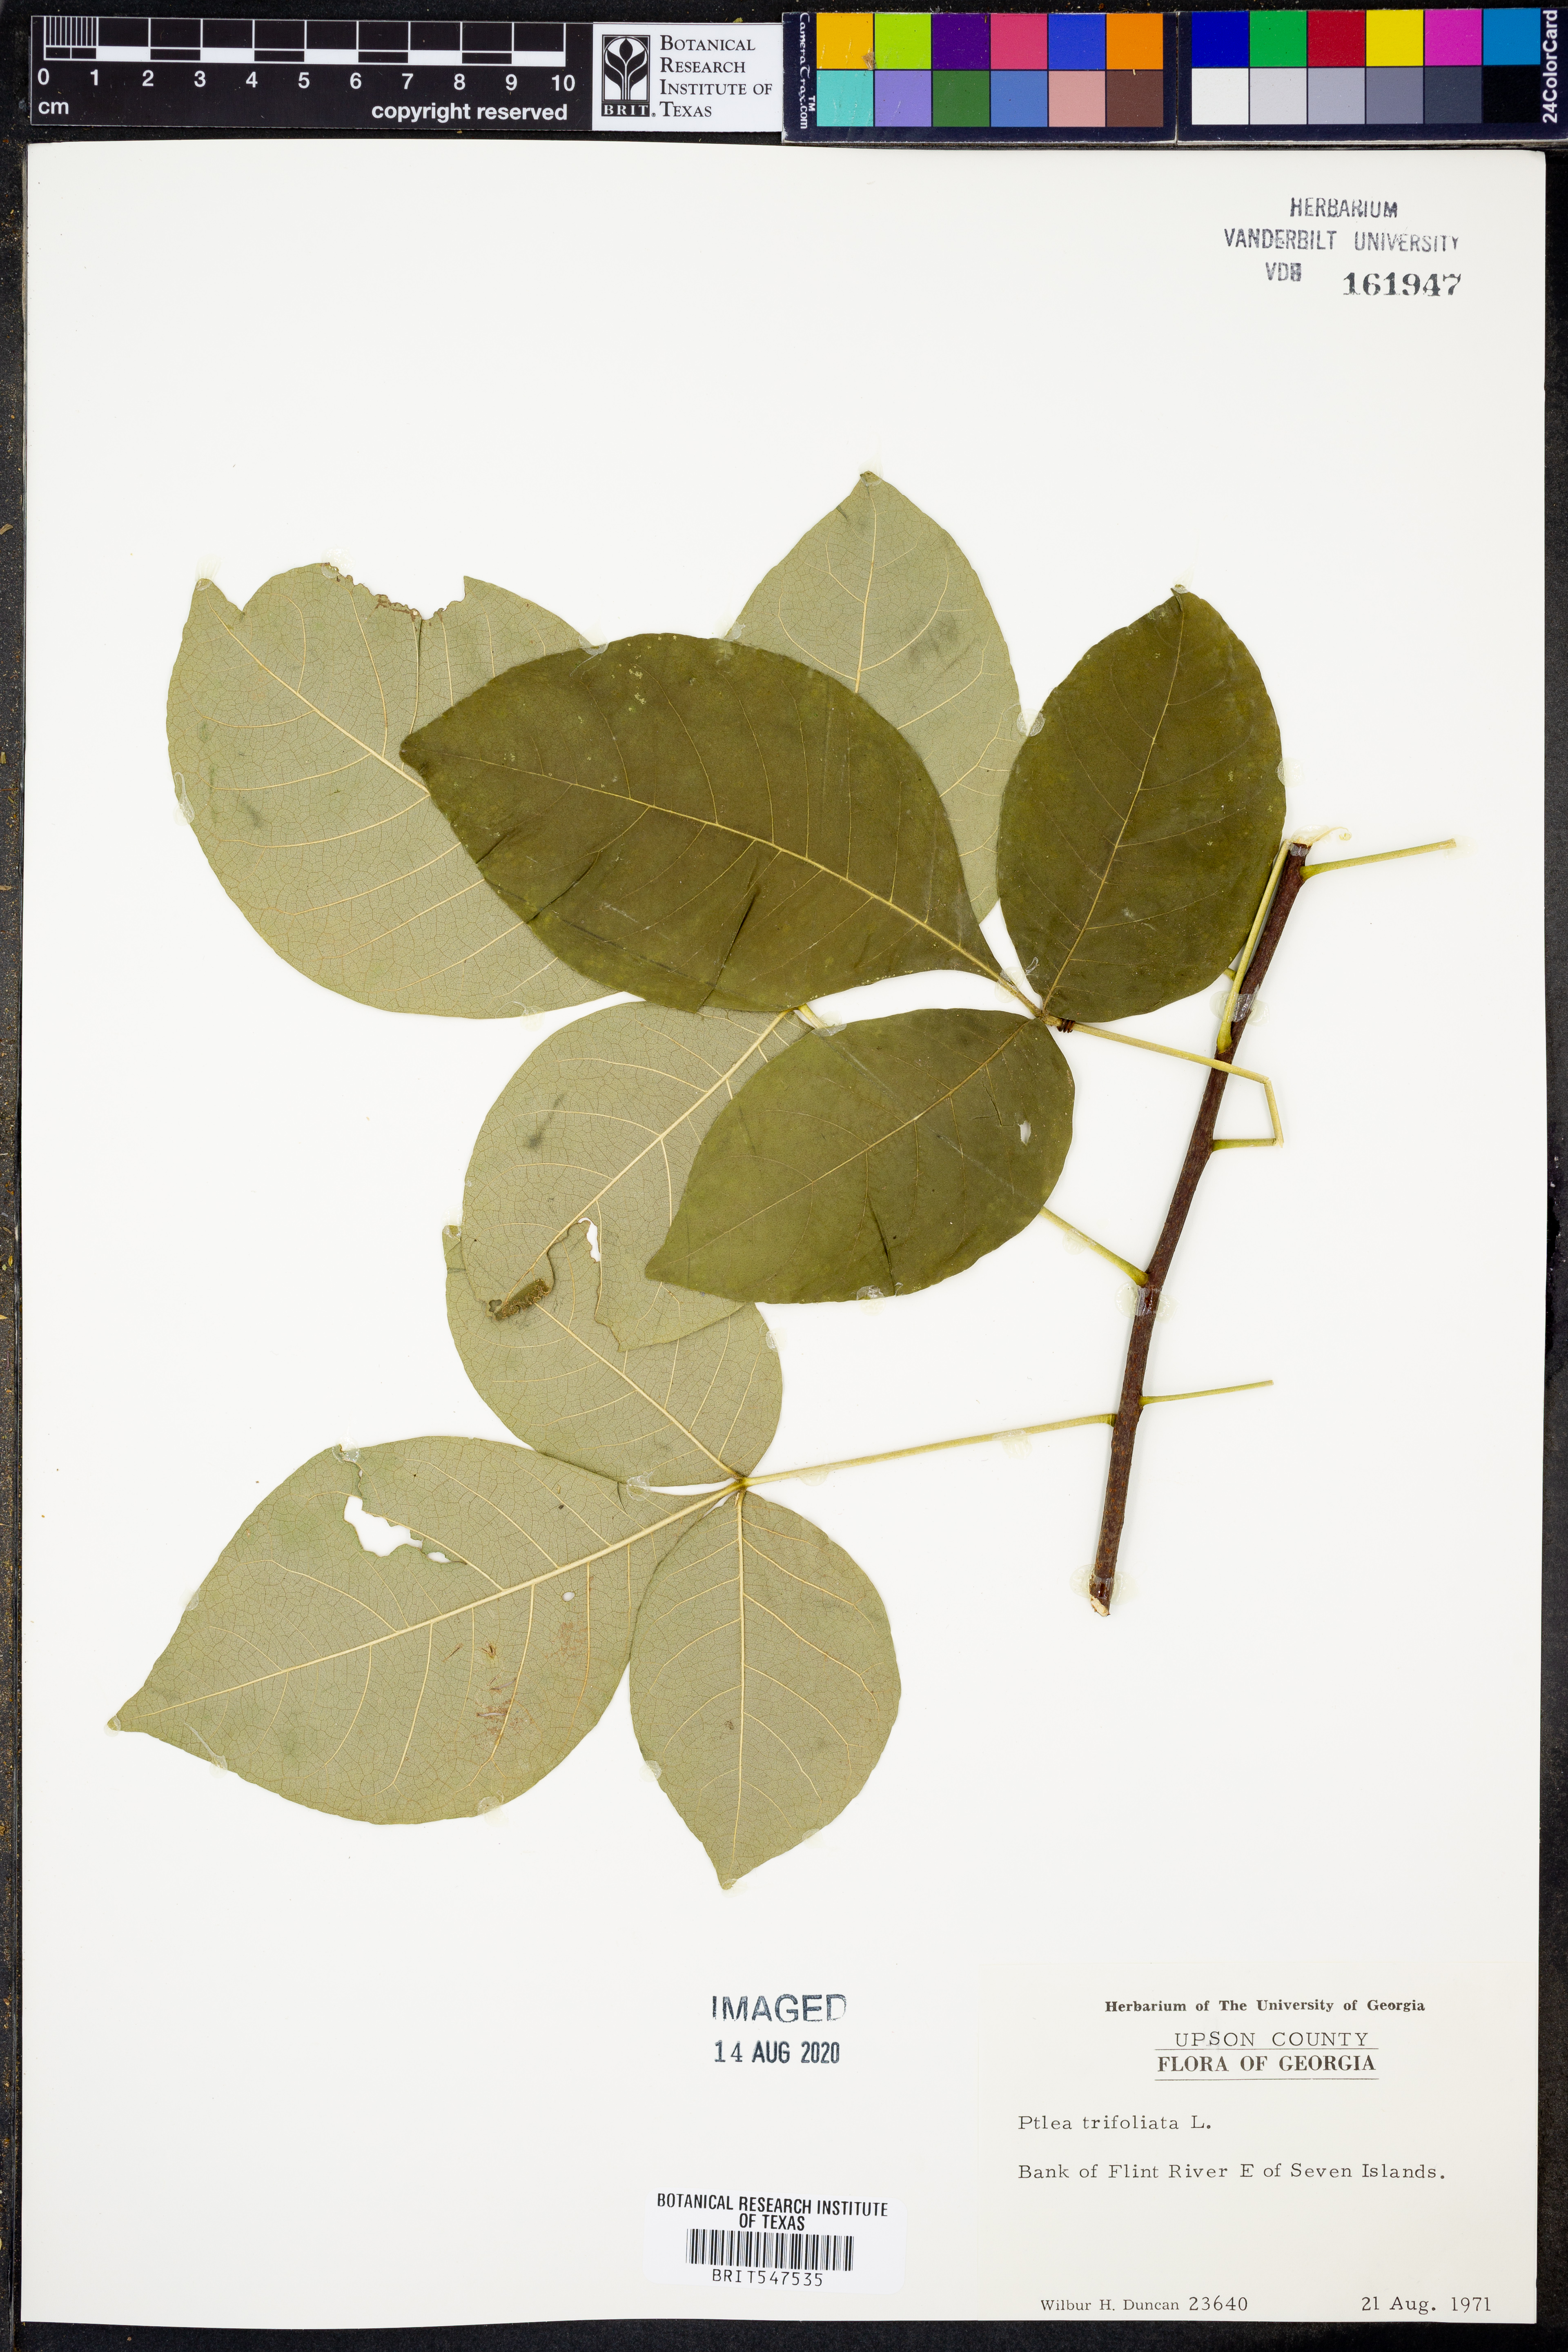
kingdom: Plantae
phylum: Tracheophyta
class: Magnoliopsida
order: Sapindales
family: Rutaceae
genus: Ptelea
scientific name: Ptelea trifoliata
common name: Common hop-tree
